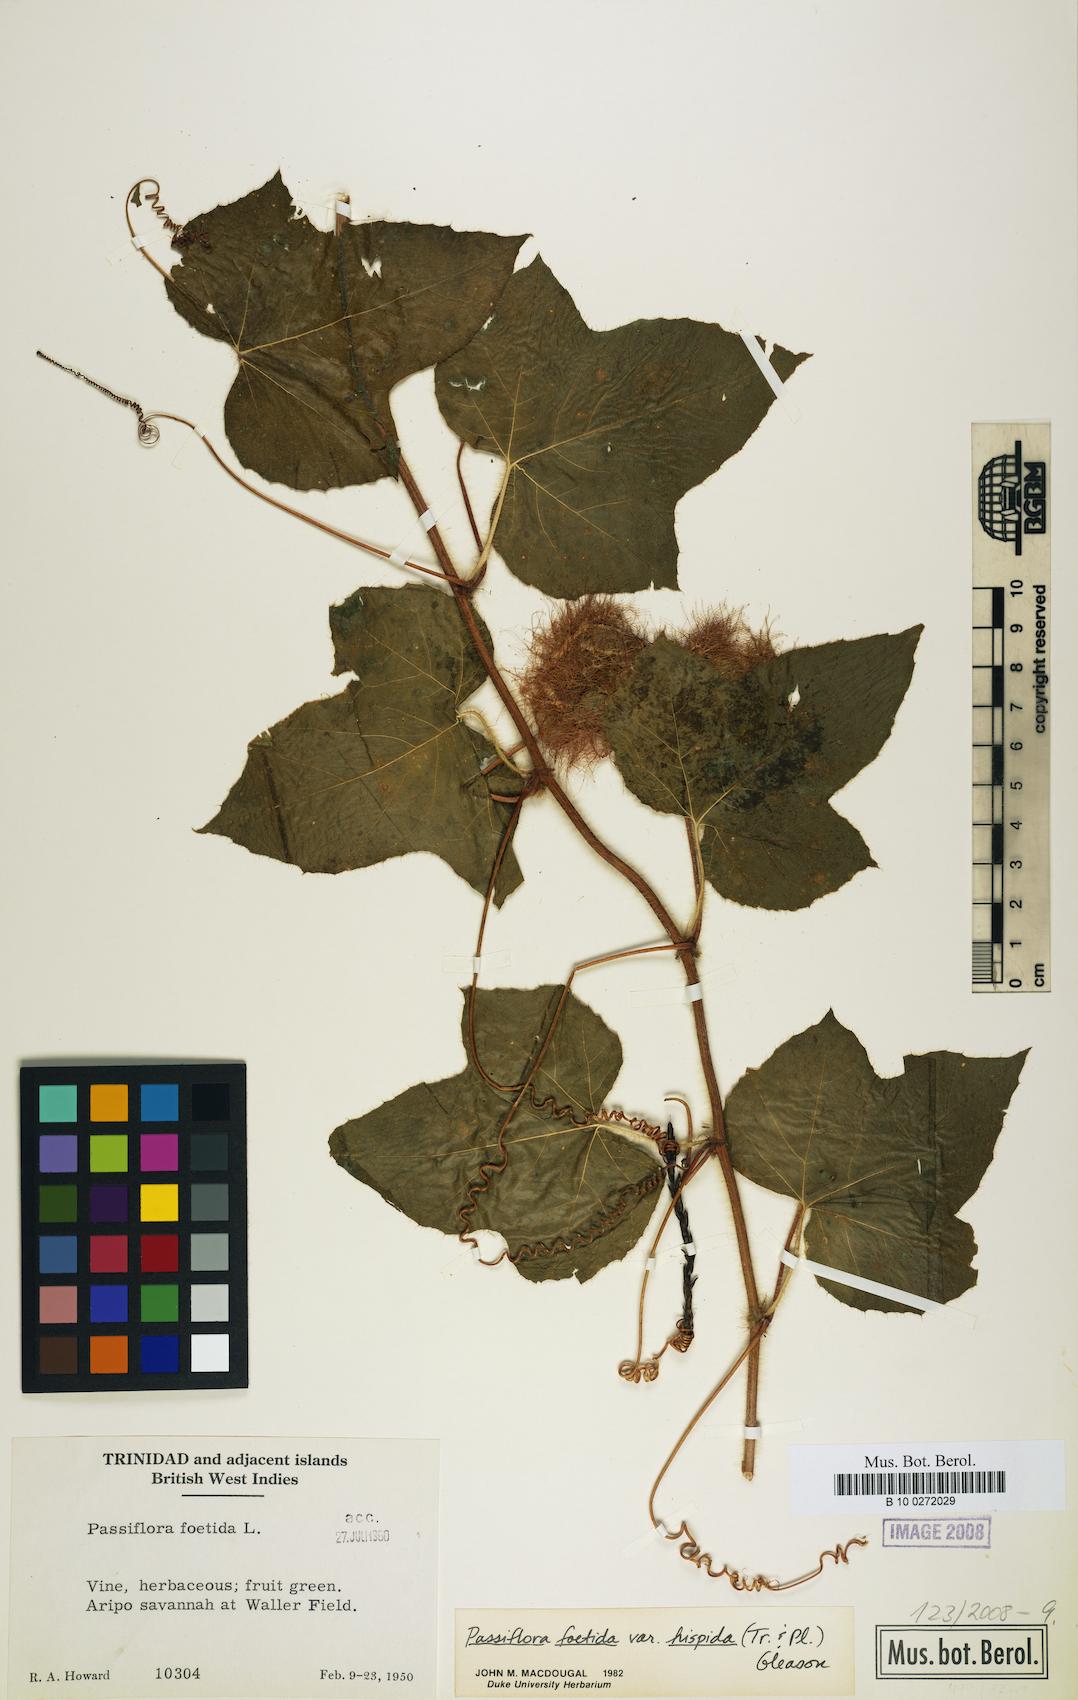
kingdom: Plantae
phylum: Tracheophyta
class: Magnoliopsida
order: Malpighiales
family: Passifloraceae
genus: Passiflora
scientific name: Passiflora vesicaria
